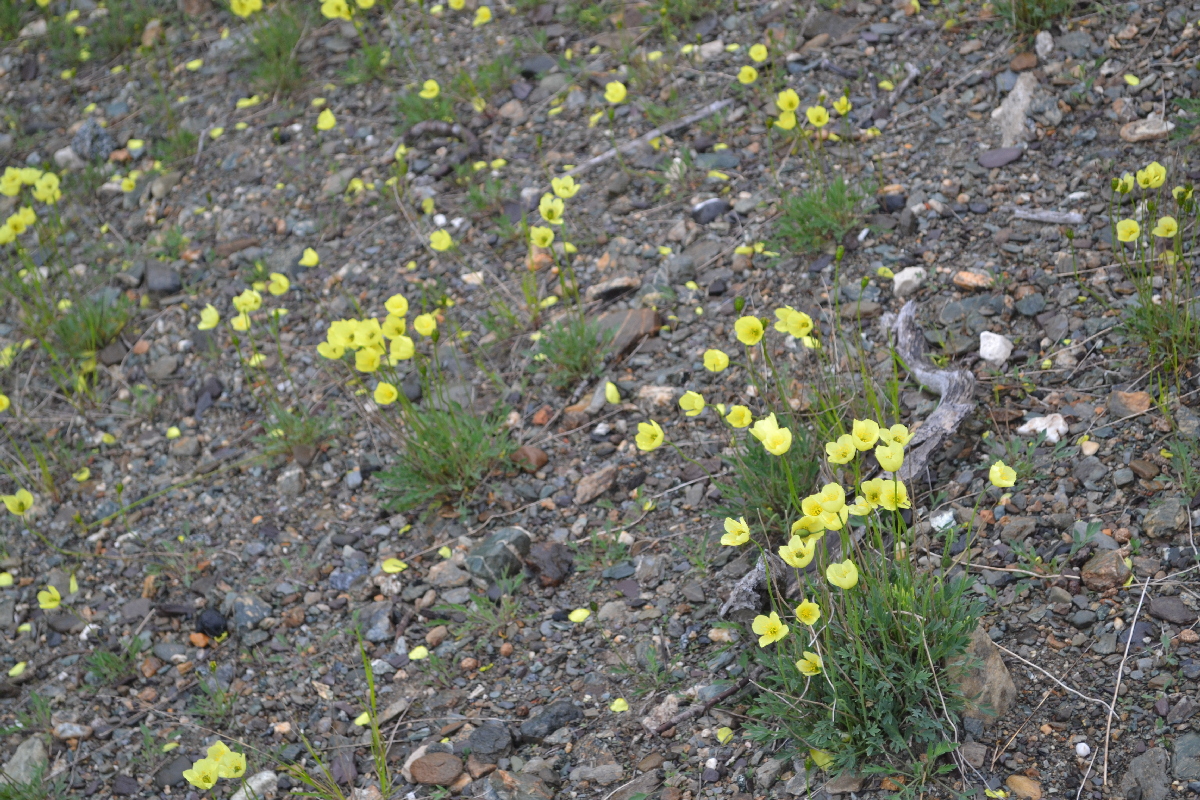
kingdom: Plantae
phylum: Tracheophyta
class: Magnoliopsida
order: Ranunculales
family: Papaveraceae
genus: Papaver
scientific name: Papaver lapponicum
